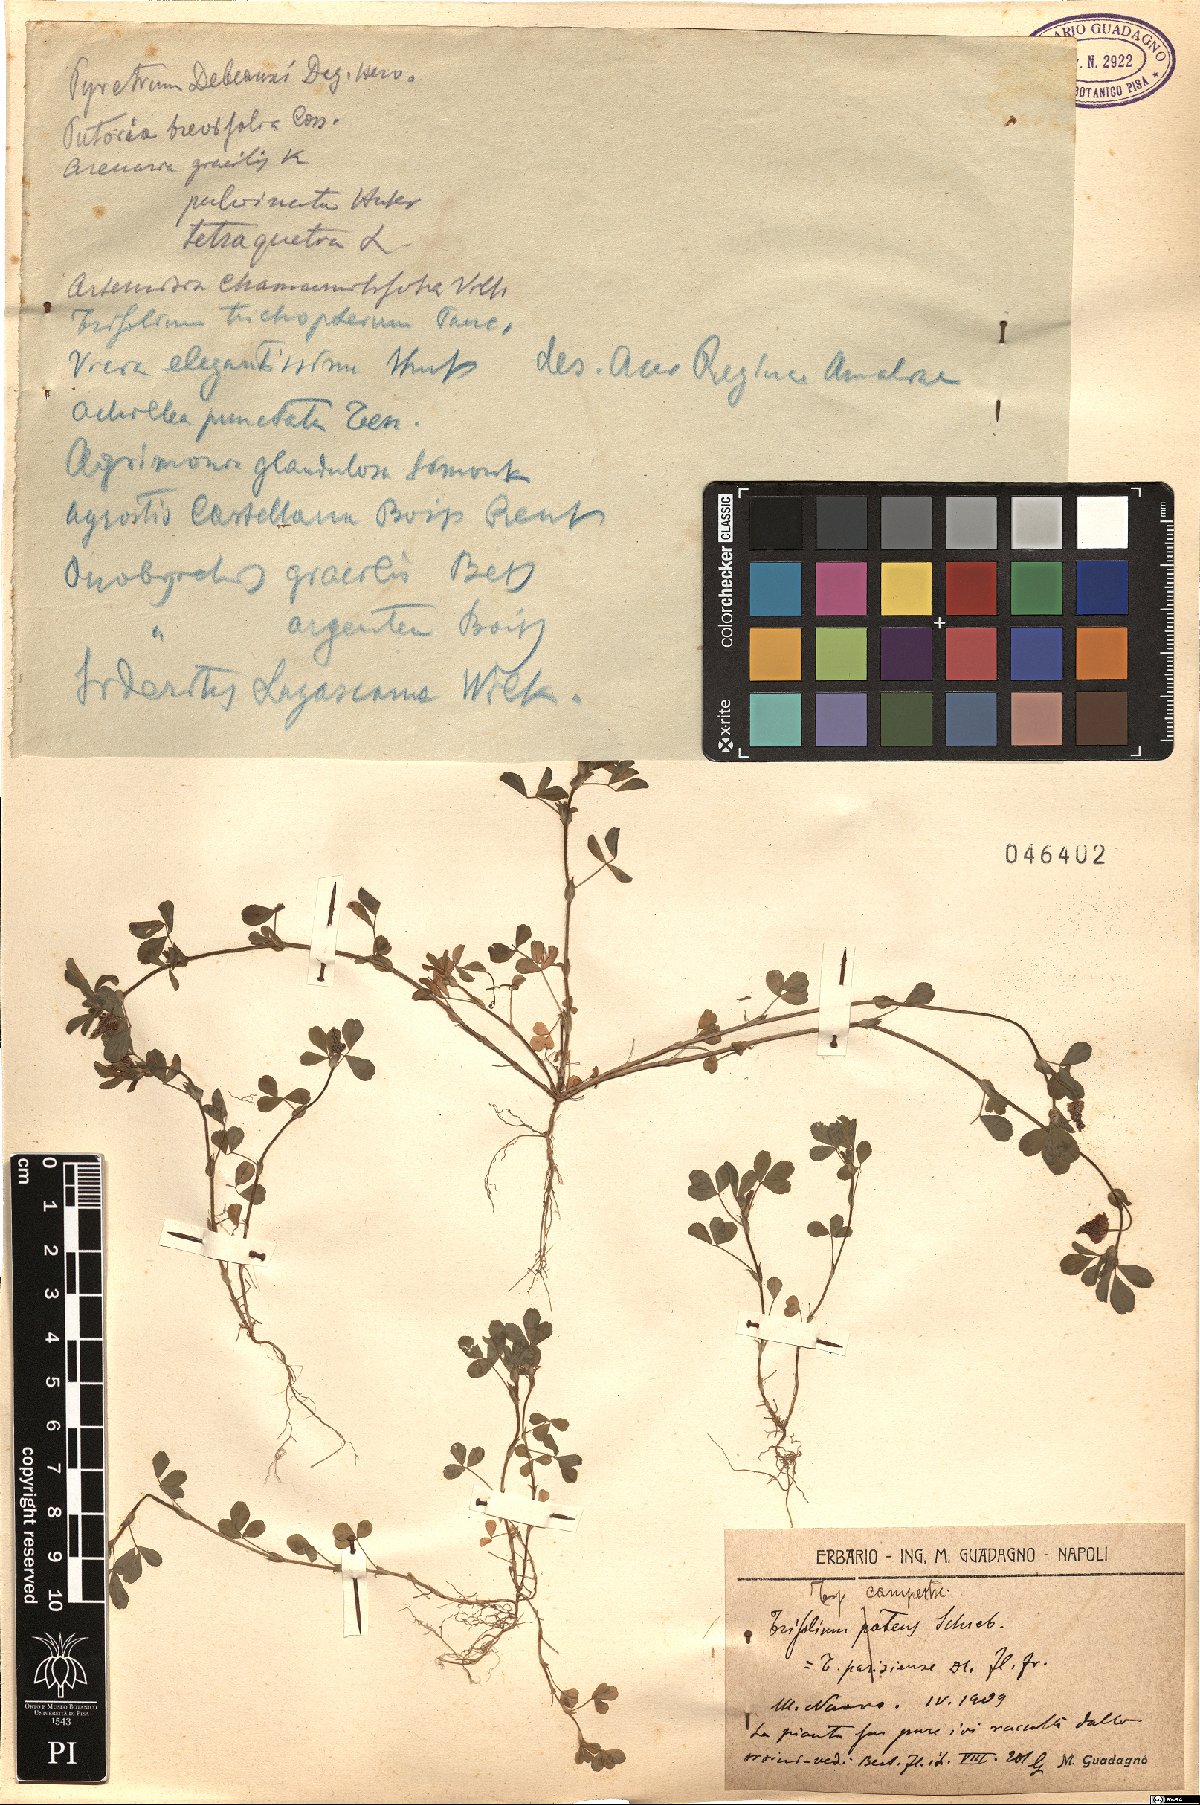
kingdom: Plantae
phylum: Tracheophyta
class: Magnoliopsida
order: Fabales
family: Fabaceae
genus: Trifolium
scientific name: Trifolium campestre
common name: Field clover
